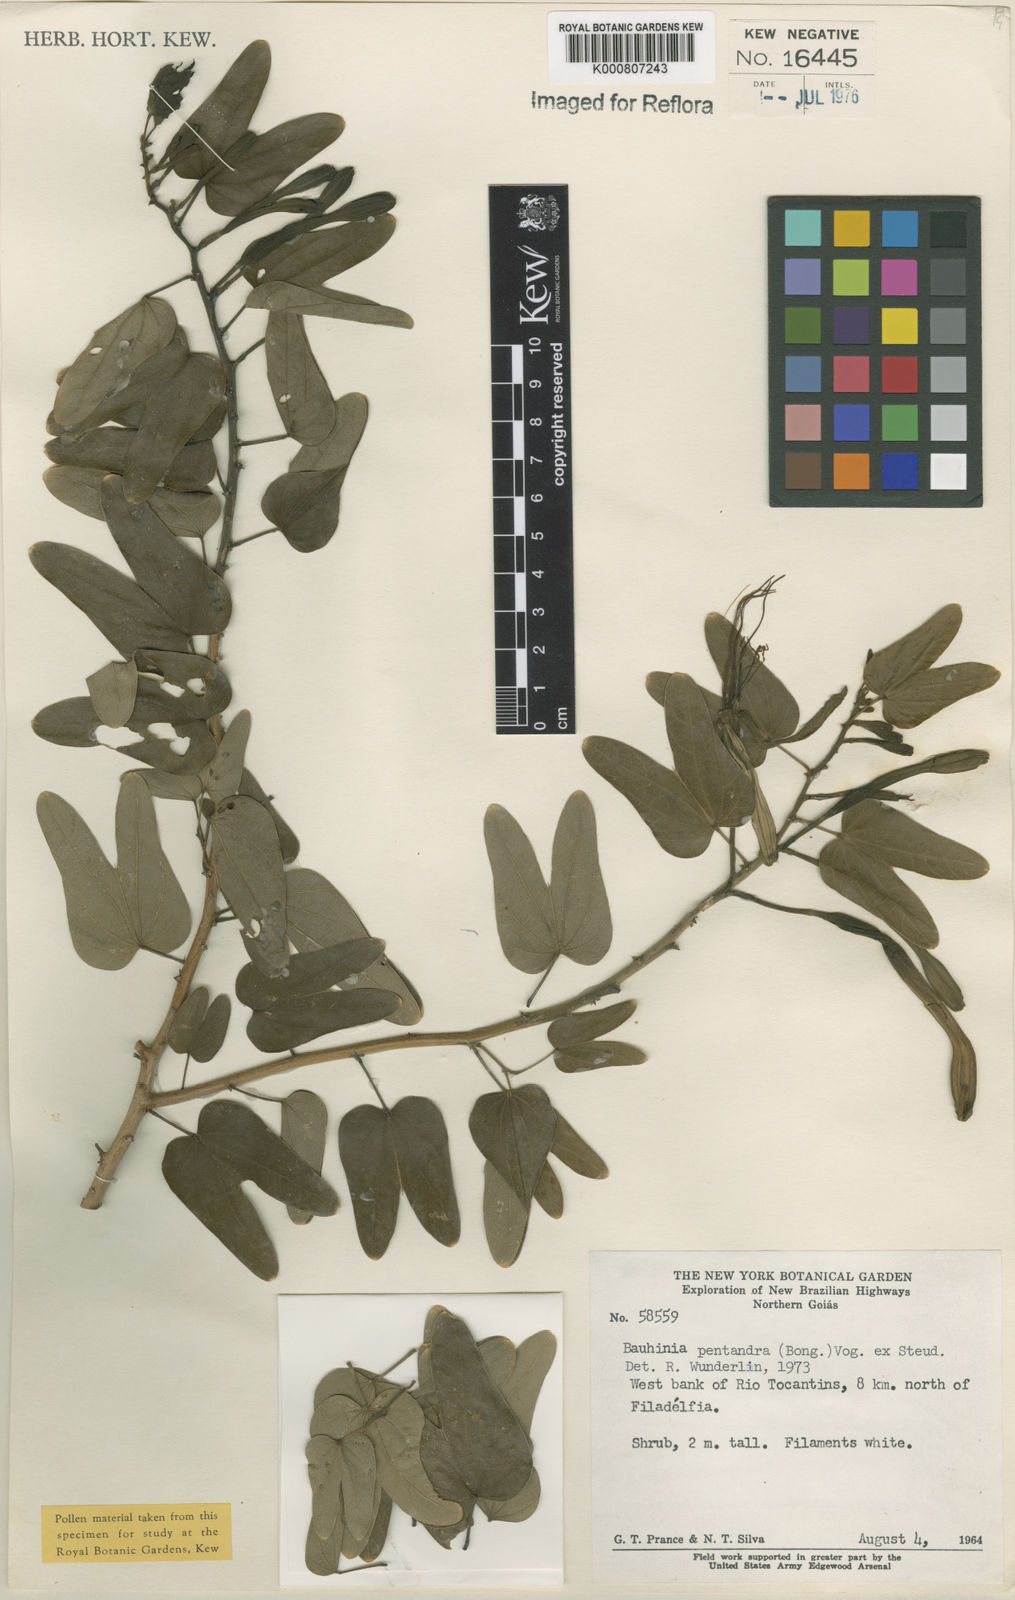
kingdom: Plantae
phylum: Tracheophyta
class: Magnoliopsida
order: Fabales
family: Fabaceae
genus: Bauhinia
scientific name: Bauhinia
